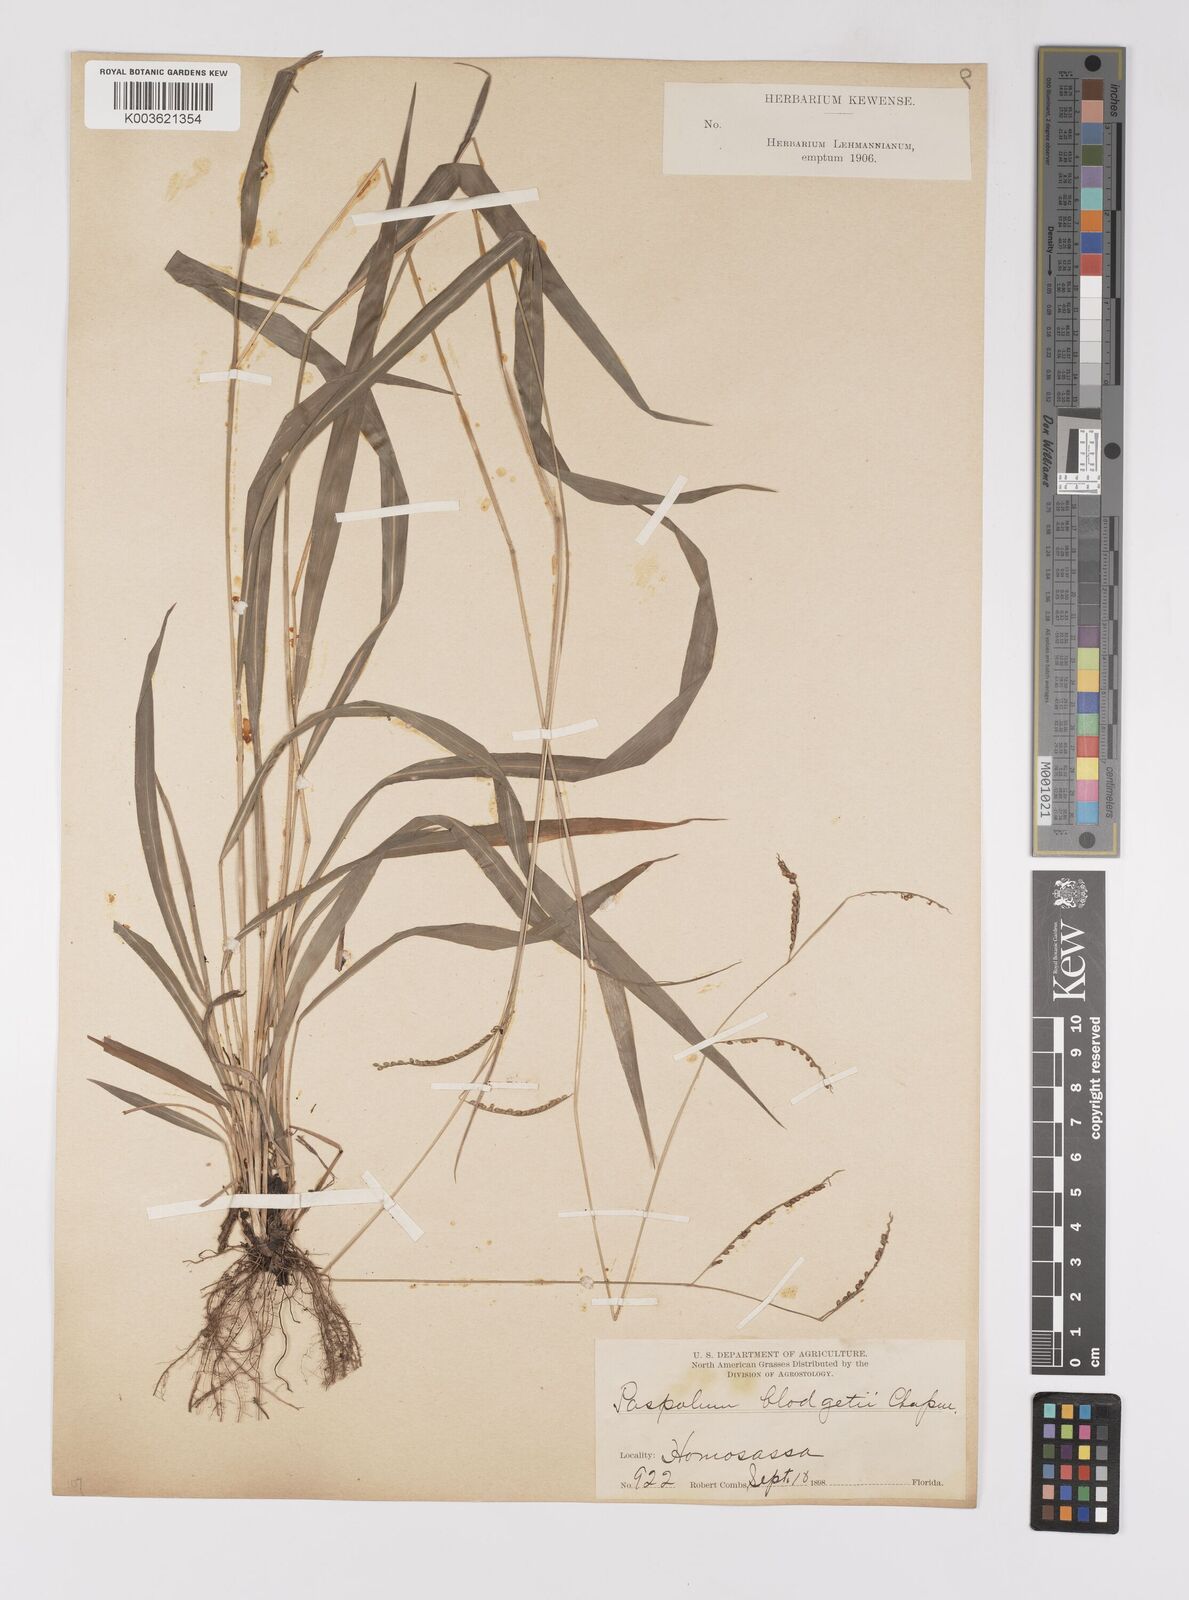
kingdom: Plantae
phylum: Tracheophyta
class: Liliopsida
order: Poales
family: Poaceae
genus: Paspalum
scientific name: Paspalum caespitosum
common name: Blue crowngrass
